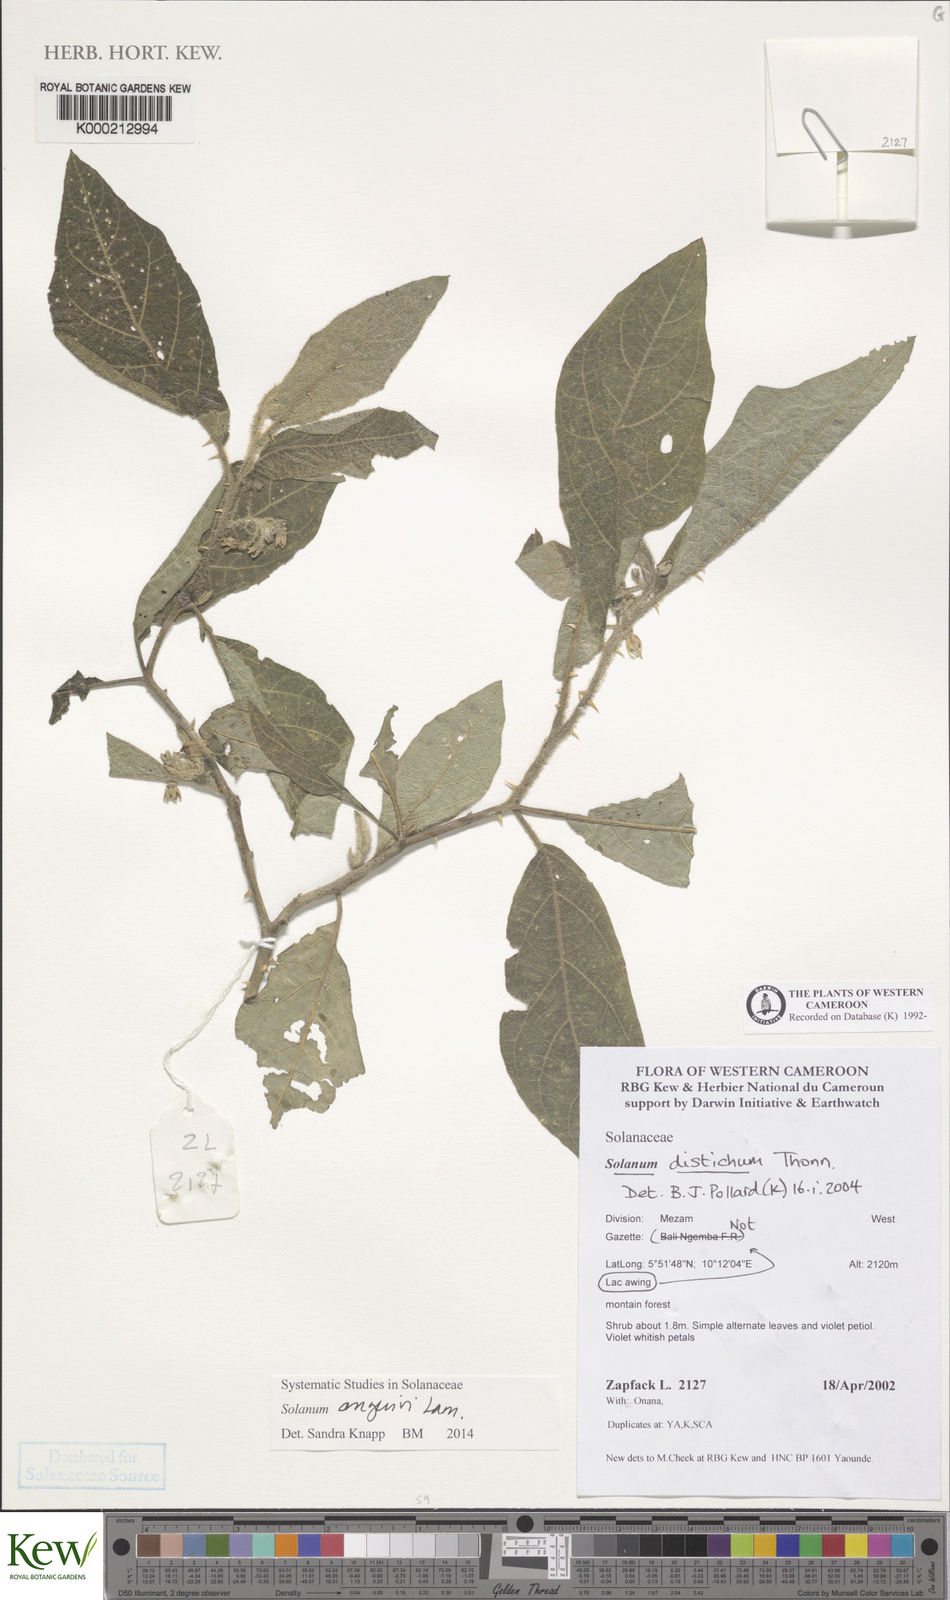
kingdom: Plantae
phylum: Tracheophyta
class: Magnoliopsida
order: Solanales
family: Solanaceae
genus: Solanum
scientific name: Solanum anguivi
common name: Forest bitterberry
